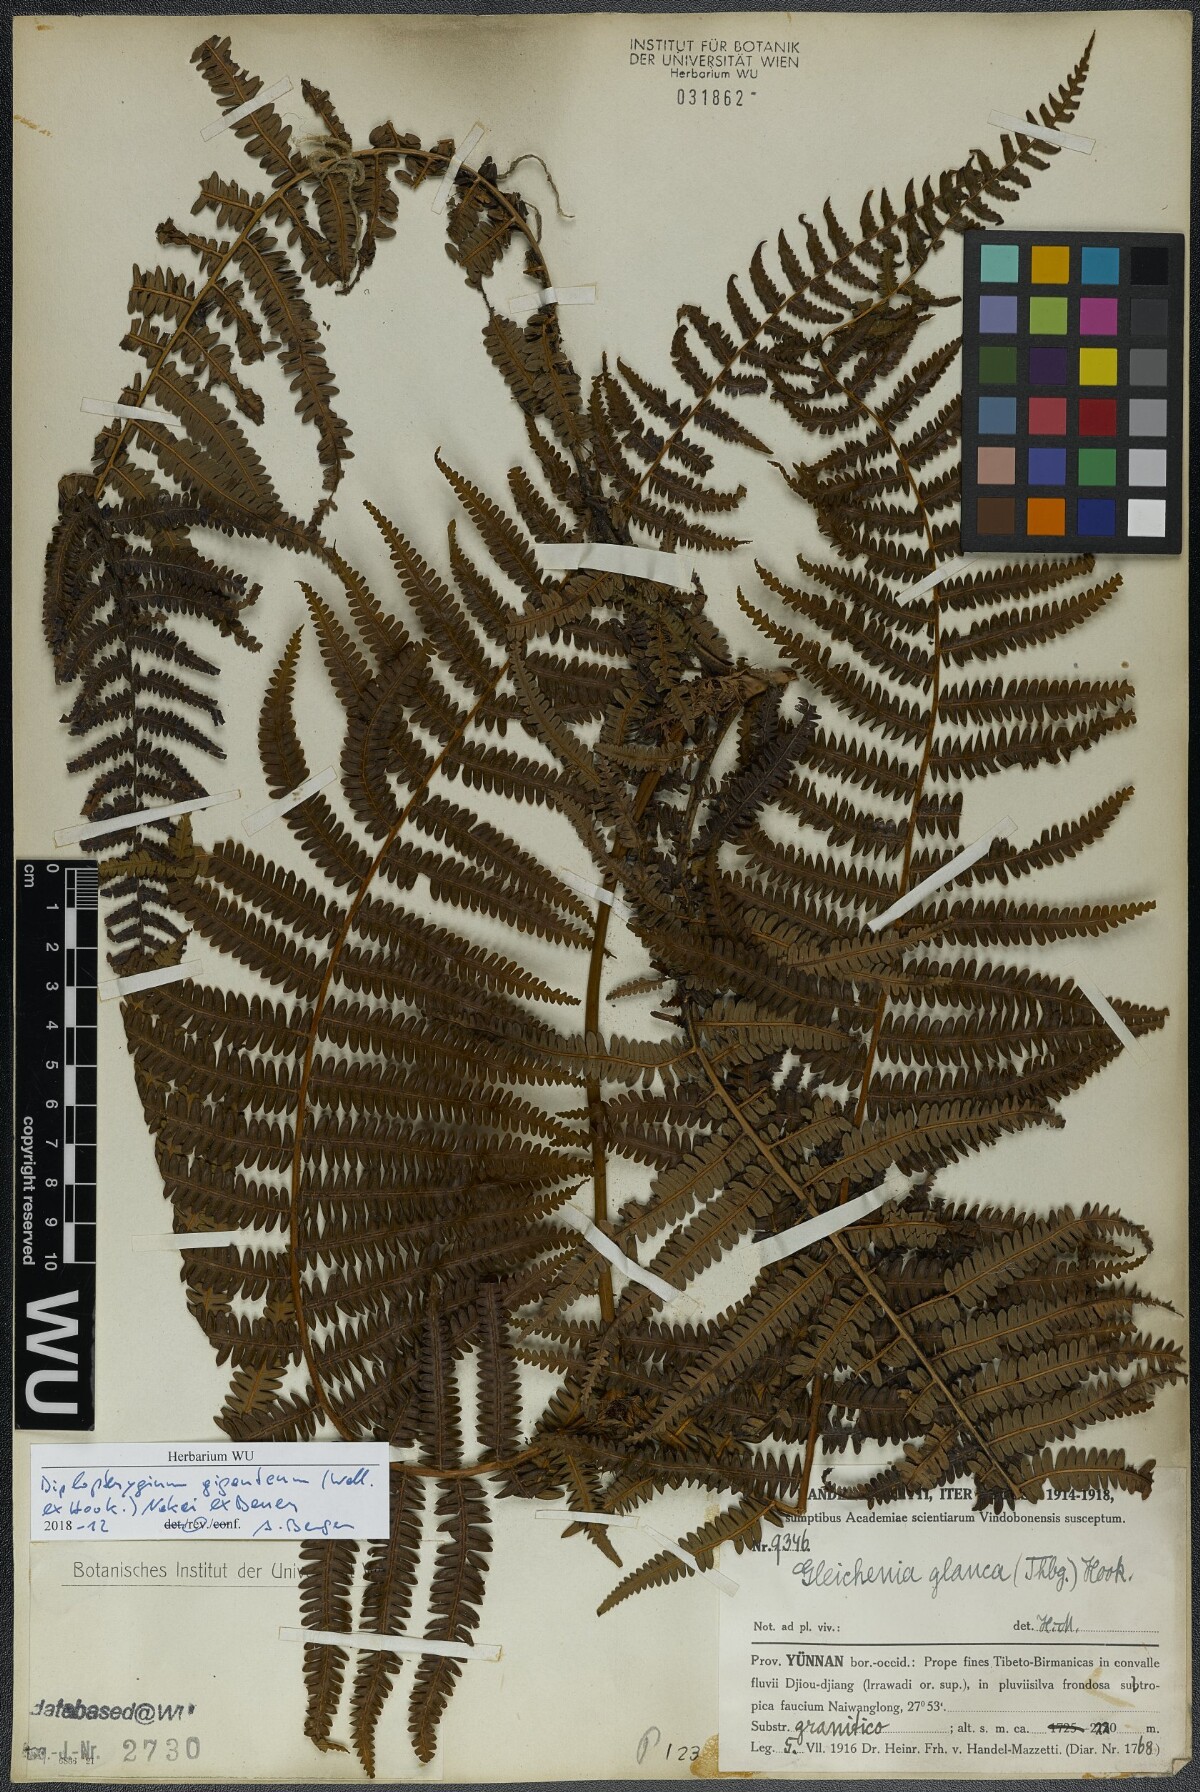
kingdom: Plantae
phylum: Tracheophyta
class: Polypodiopsida
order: Gleicheniales
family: Gleicheniaceae
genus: Diplopterygium
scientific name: Diplopterygium giganteum
